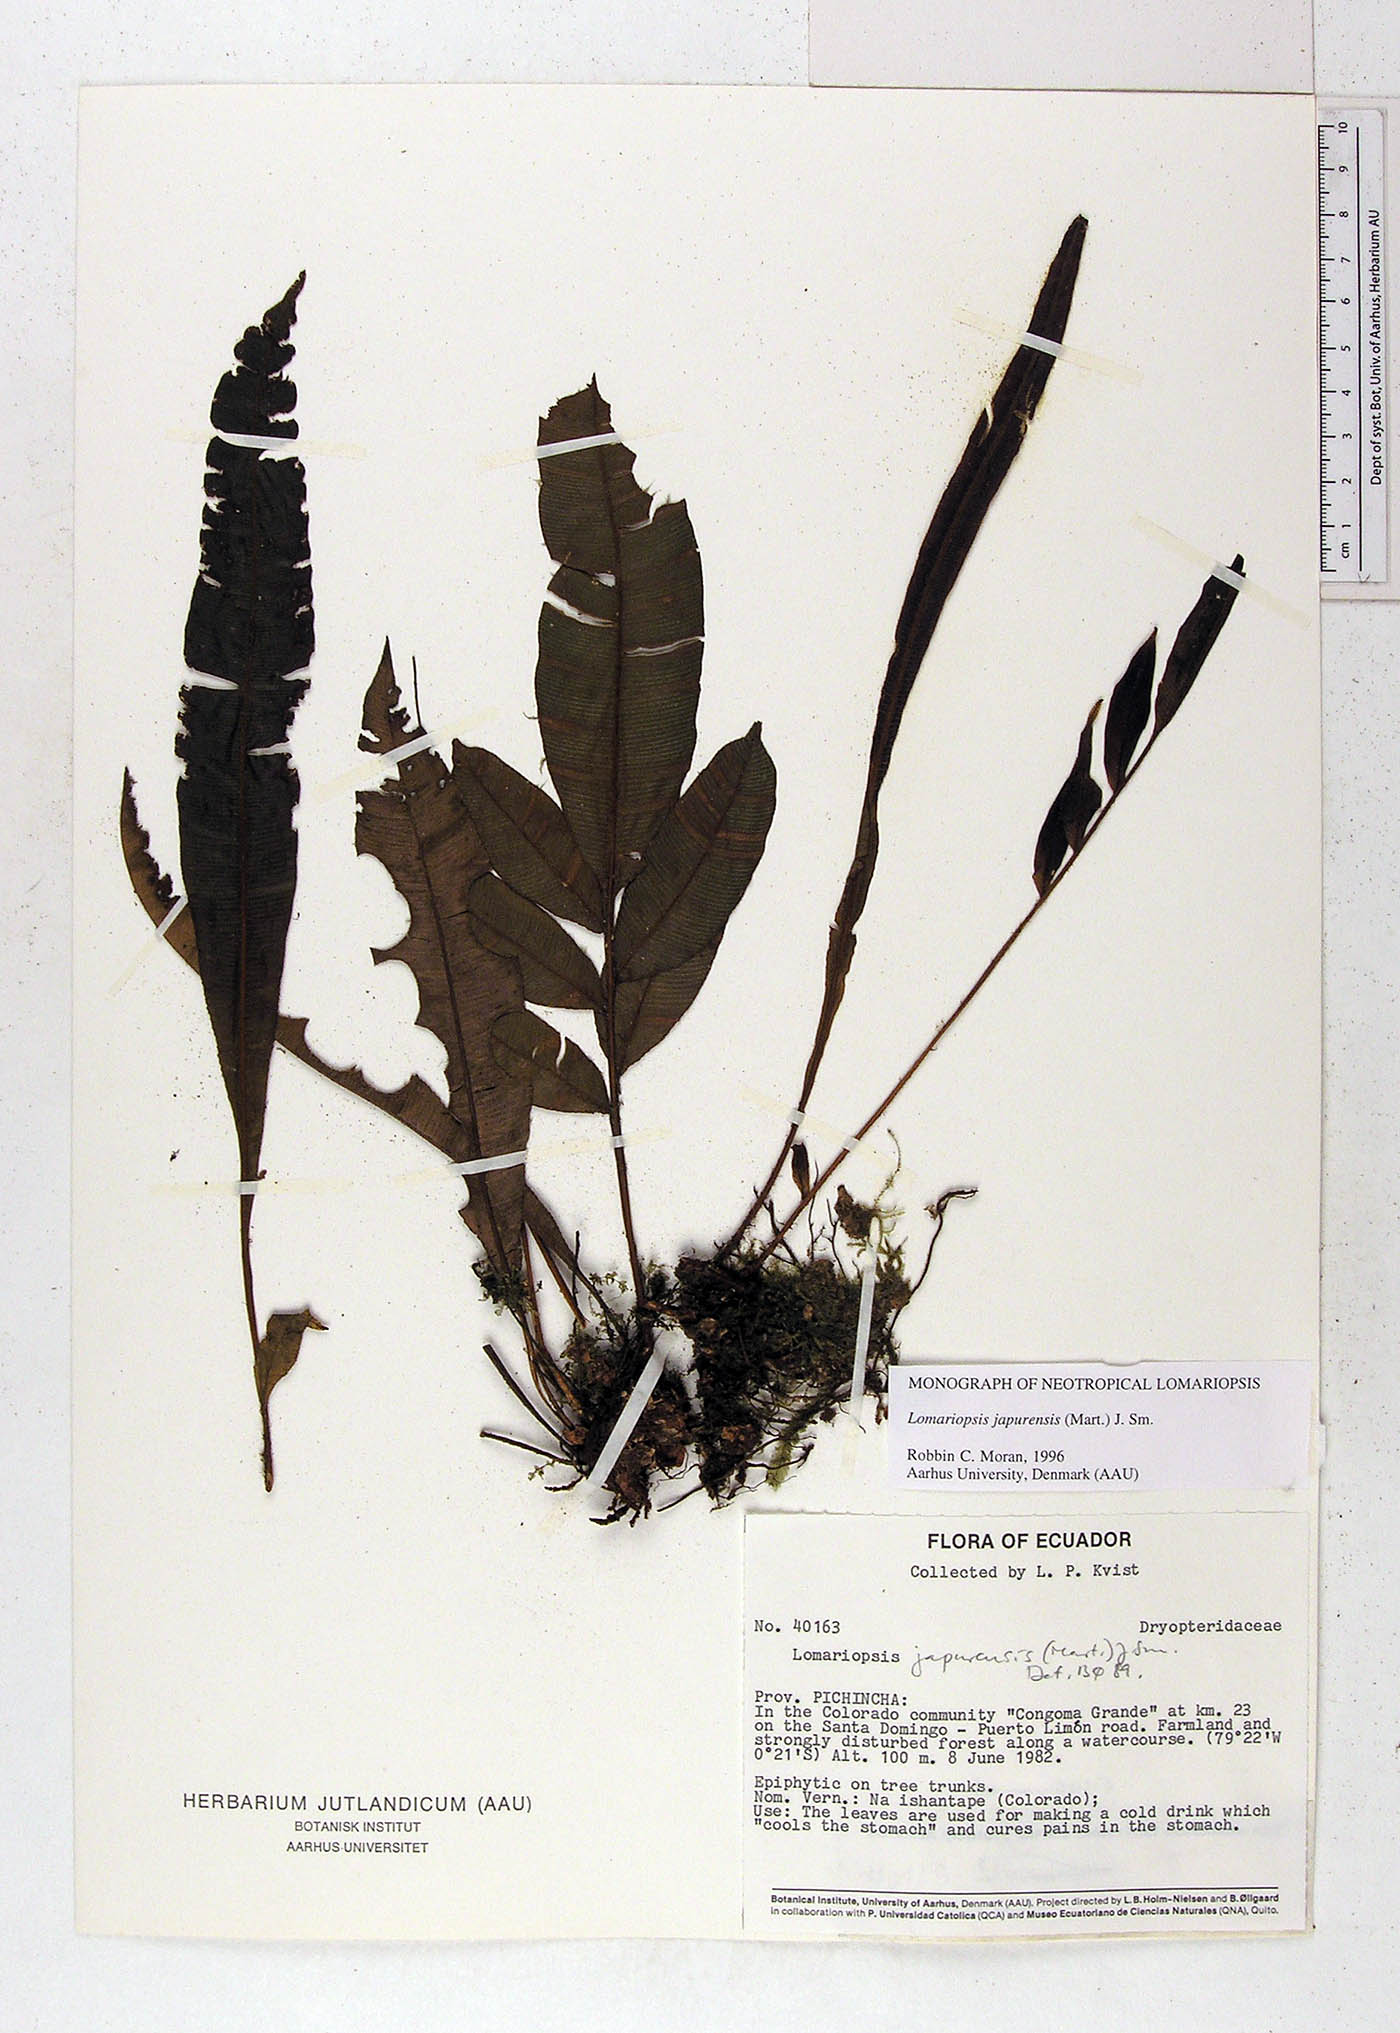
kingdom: Plantae
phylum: Tracheophyta
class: Polypodiopsida
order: Polypodiales
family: Lomariopsidaceae
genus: Lomariopsis
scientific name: Lomariopsis japurensis
